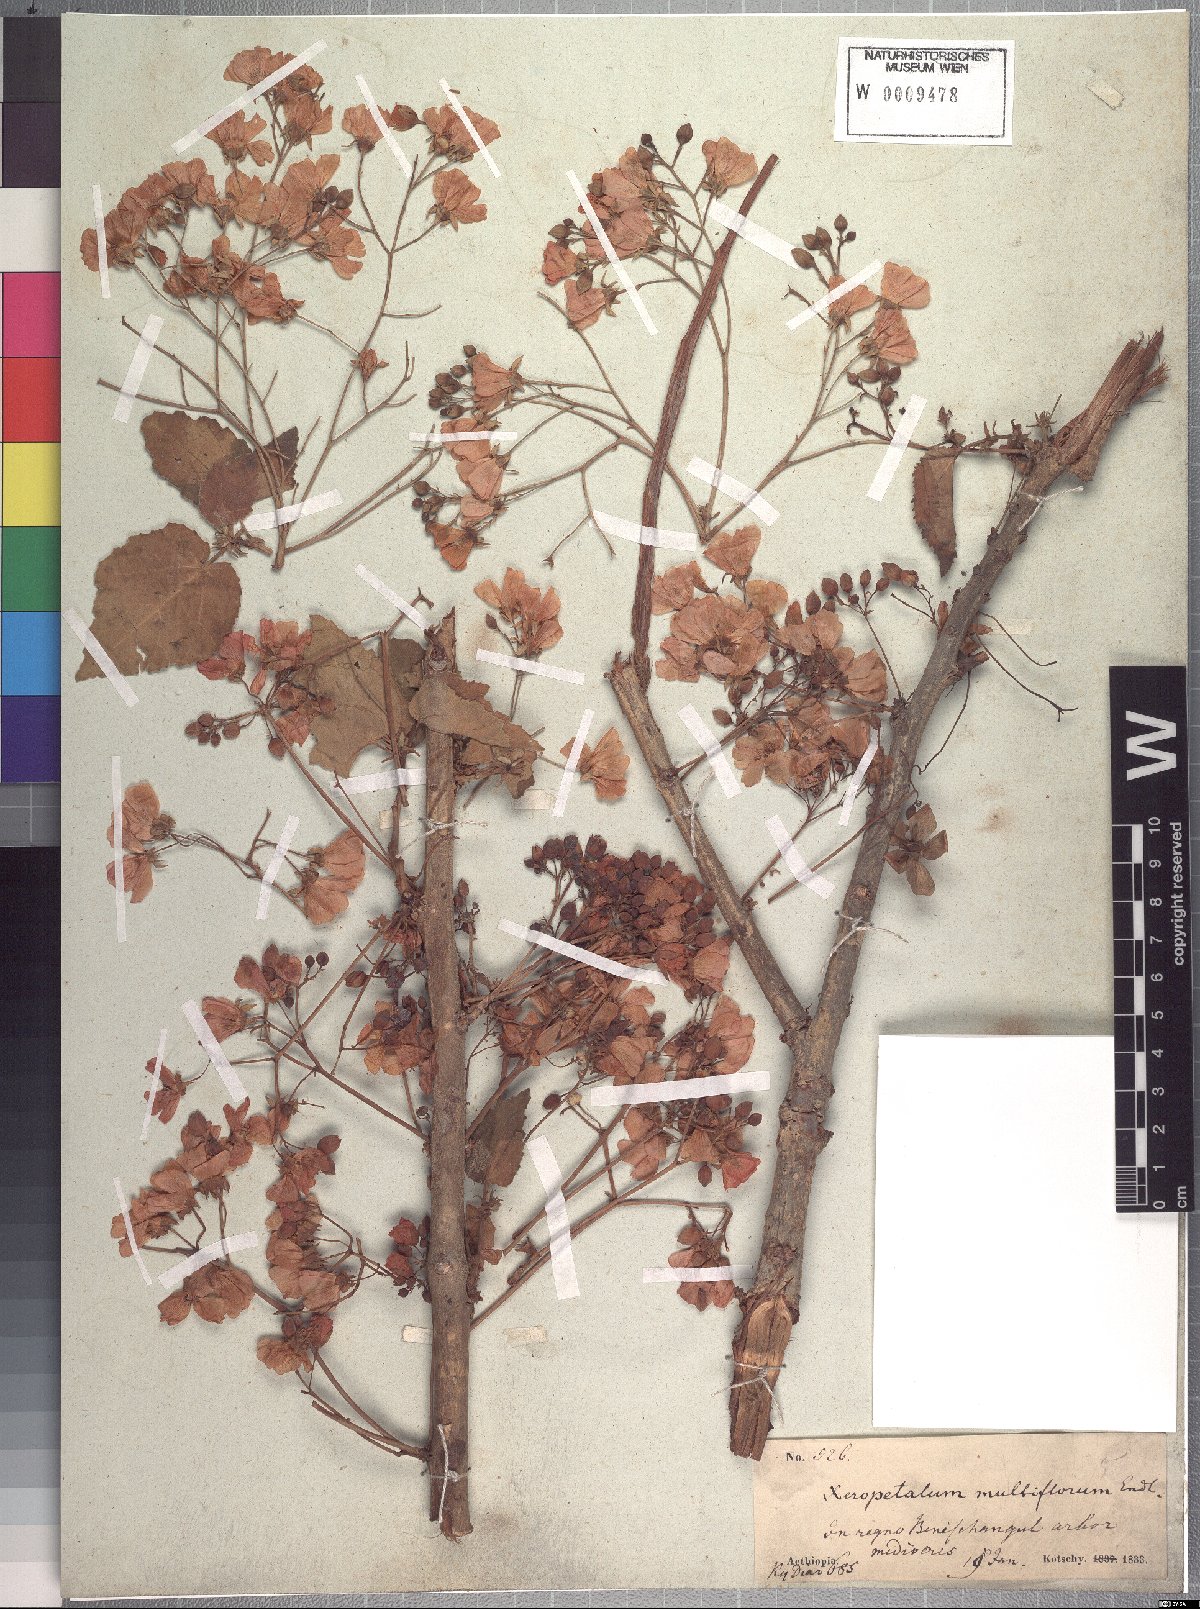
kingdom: Plantae
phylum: Tracheophyta
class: Magnoliopsida
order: Malvales
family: Malvaceae
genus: Dombeya
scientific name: Dombeya quinqueseta
